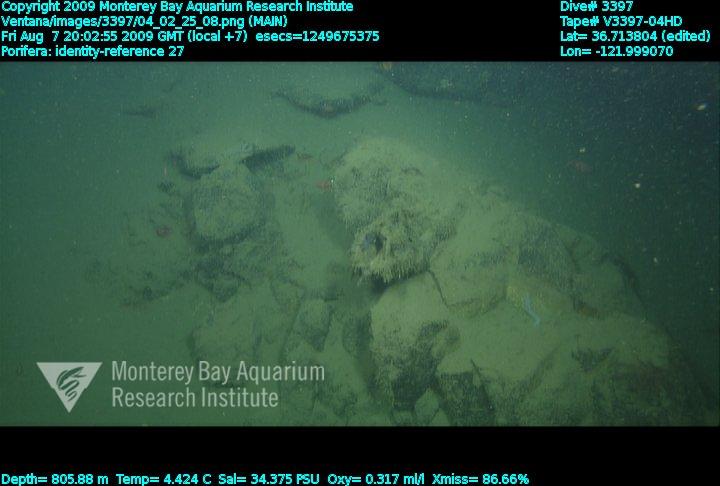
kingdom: Animalia
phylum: Porifera
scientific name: Porifera
